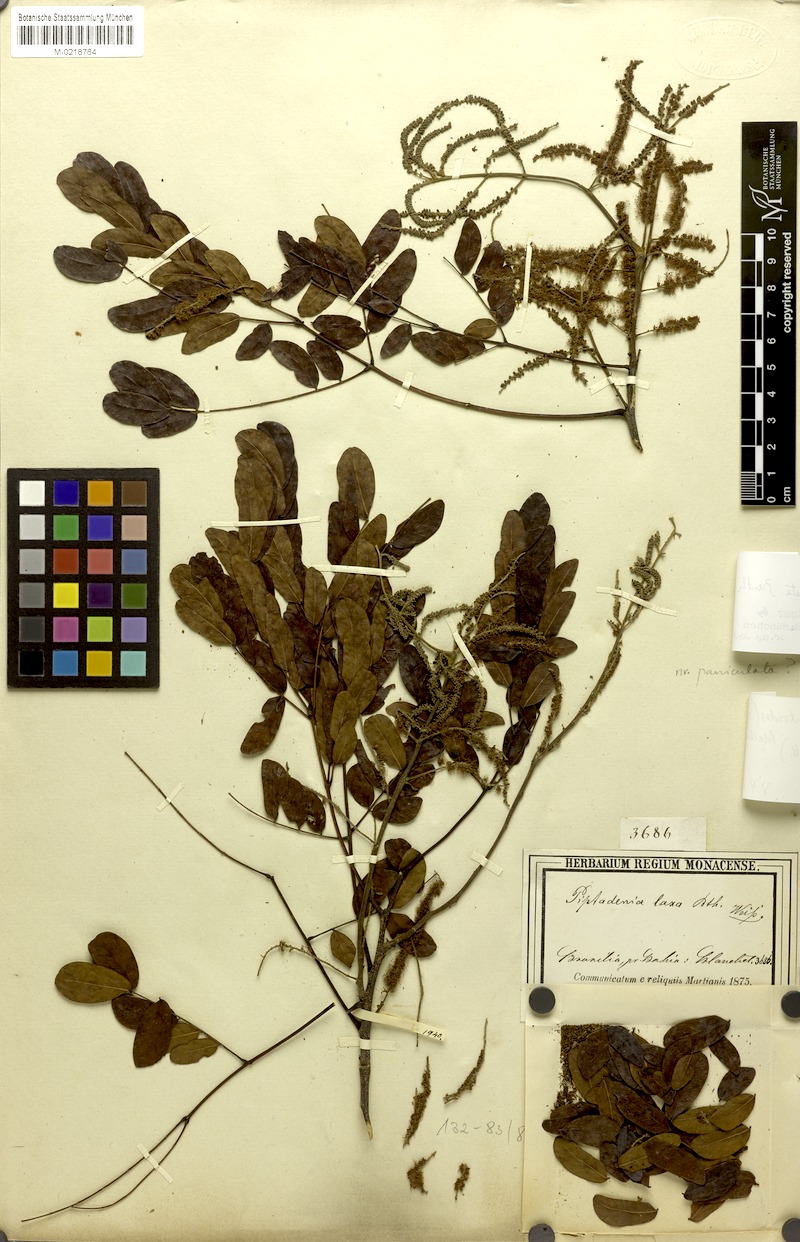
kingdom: Plantae
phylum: Tracheophyta
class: Magnoliopsida
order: Fabales
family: Fabaceae
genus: Piptadenia
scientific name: Piptadenia paniculata
